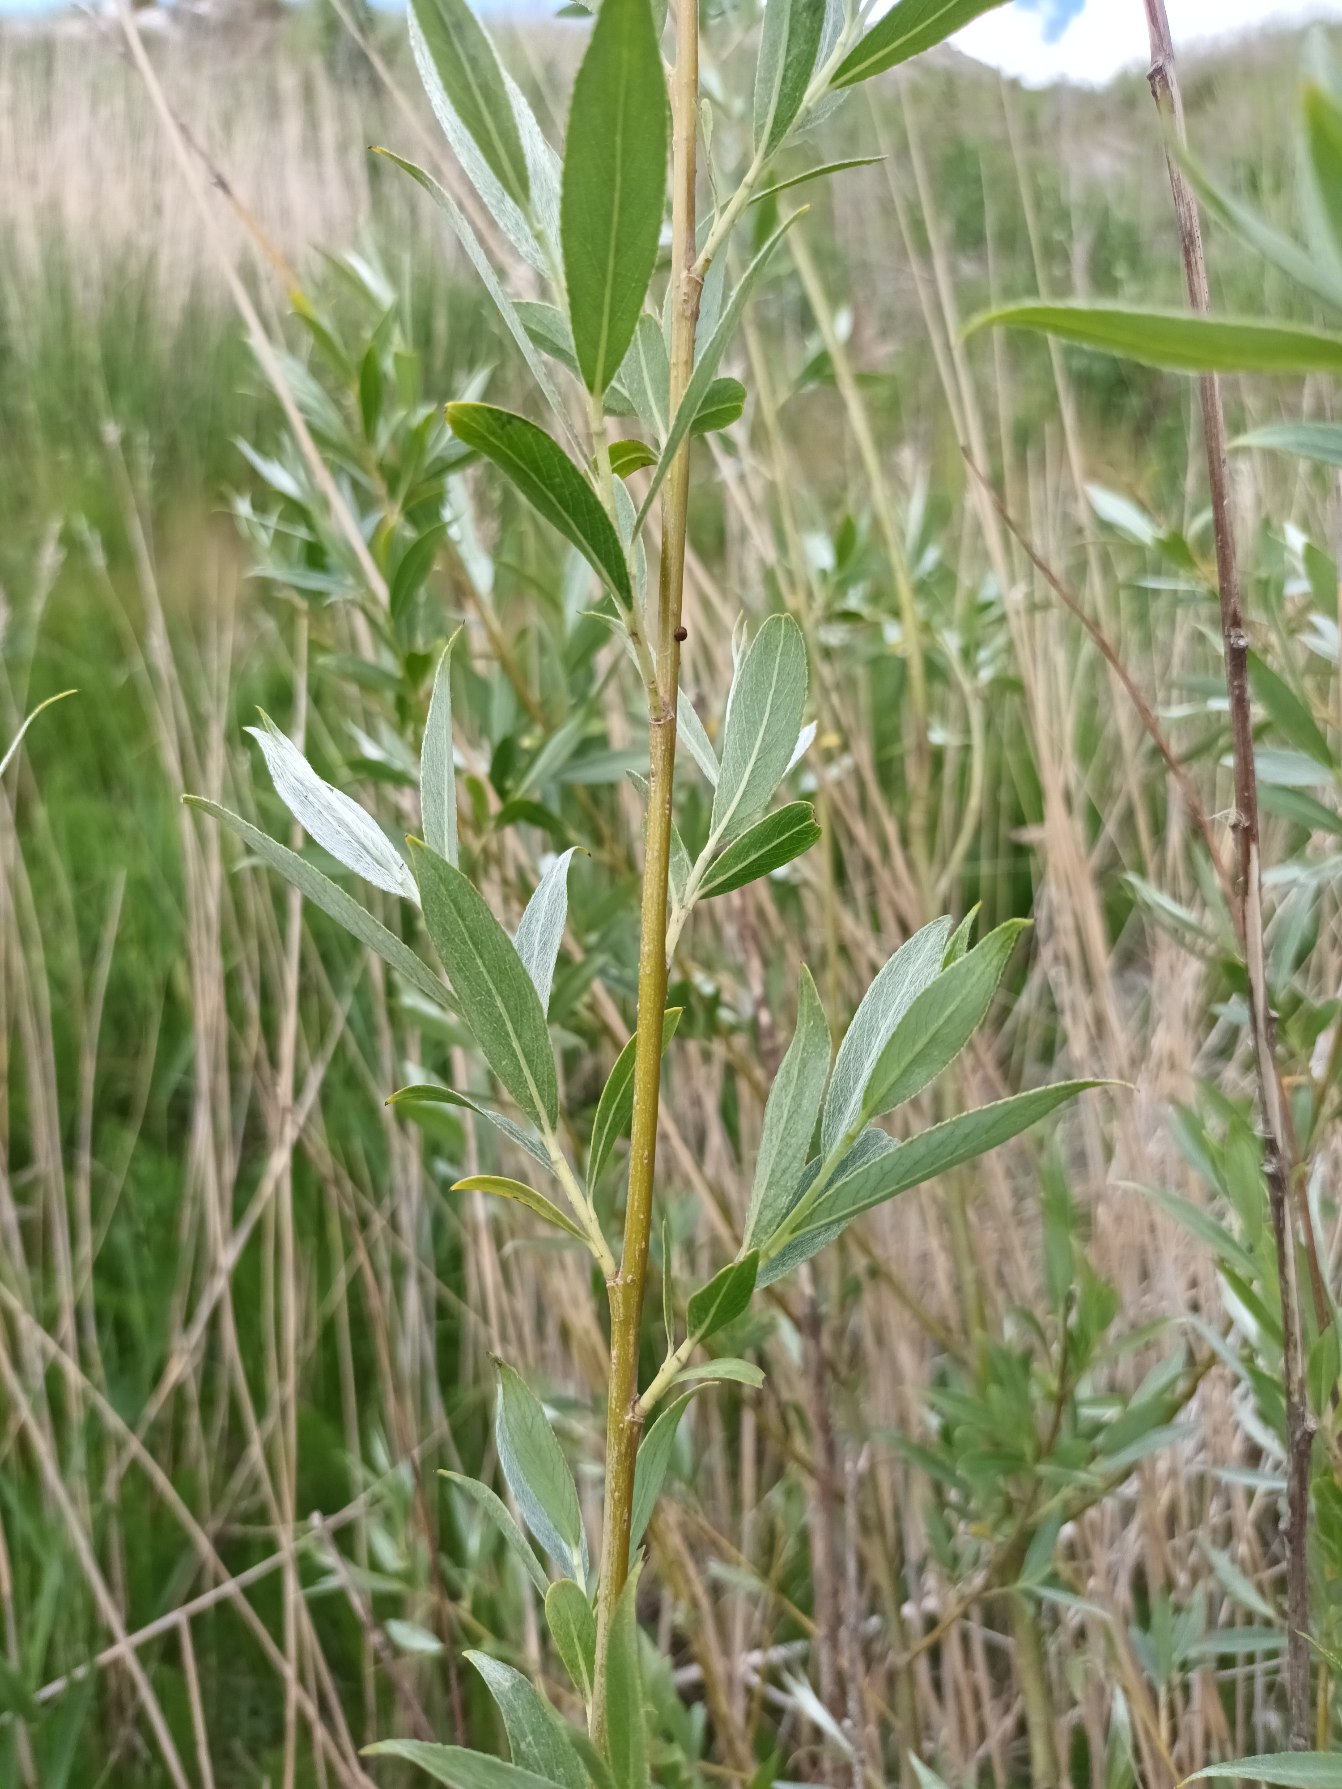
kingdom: Plantae
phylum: Tracheophyta
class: Magnoliopsida
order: Malpighiales
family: Salicaceae
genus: Salix
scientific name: Salix alba
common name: Hvid-pil
